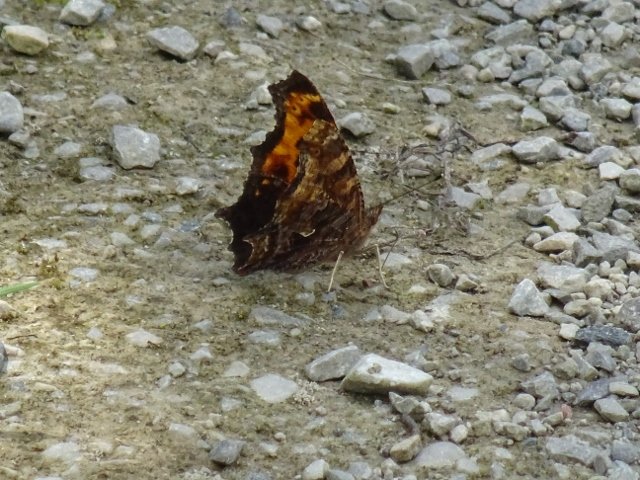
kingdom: Animalia
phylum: Arthropoda
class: Insecta
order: Lepidoptera
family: Nymphalidae
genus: Polygonia
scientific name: Polygonia comma
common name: Eastern Comma
